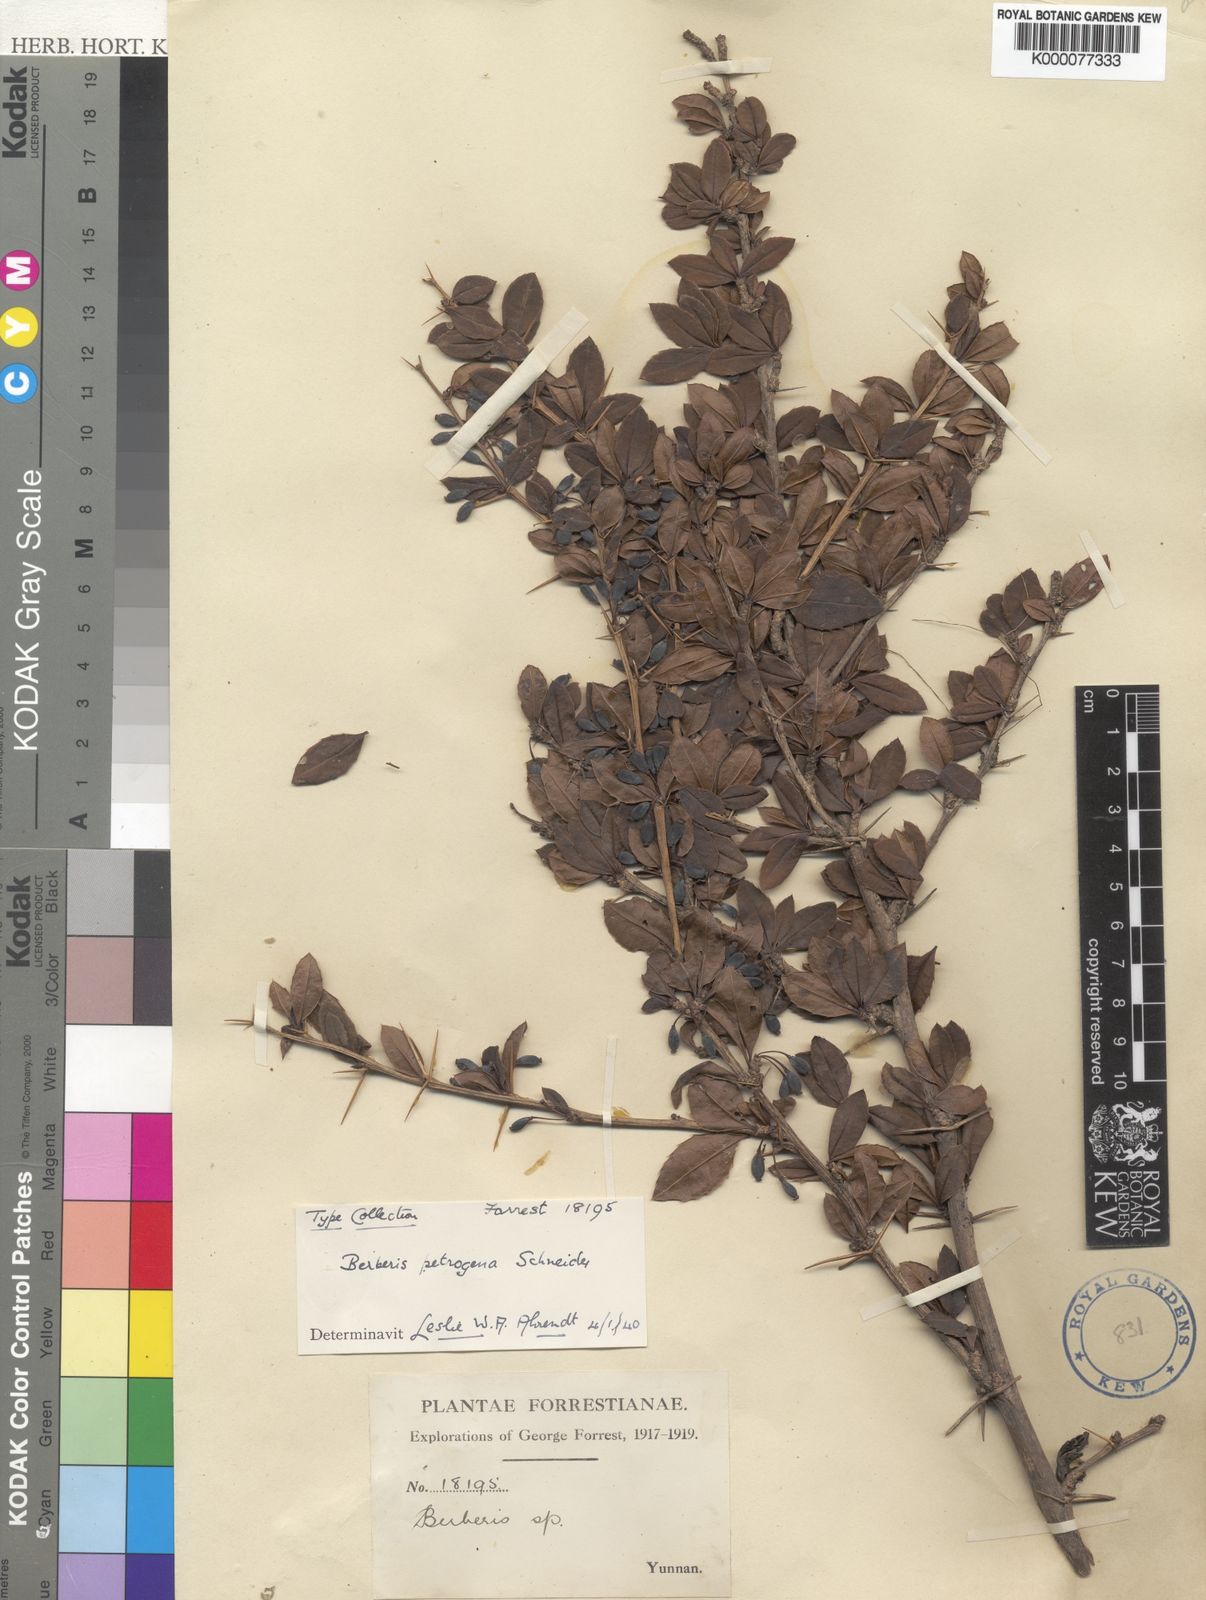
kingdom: Plantae
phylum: Tracheophyta
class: Magnoliopsida
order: Ranunculales
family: Berberidaceae
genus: Berberis
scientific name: Berberis petrogena
